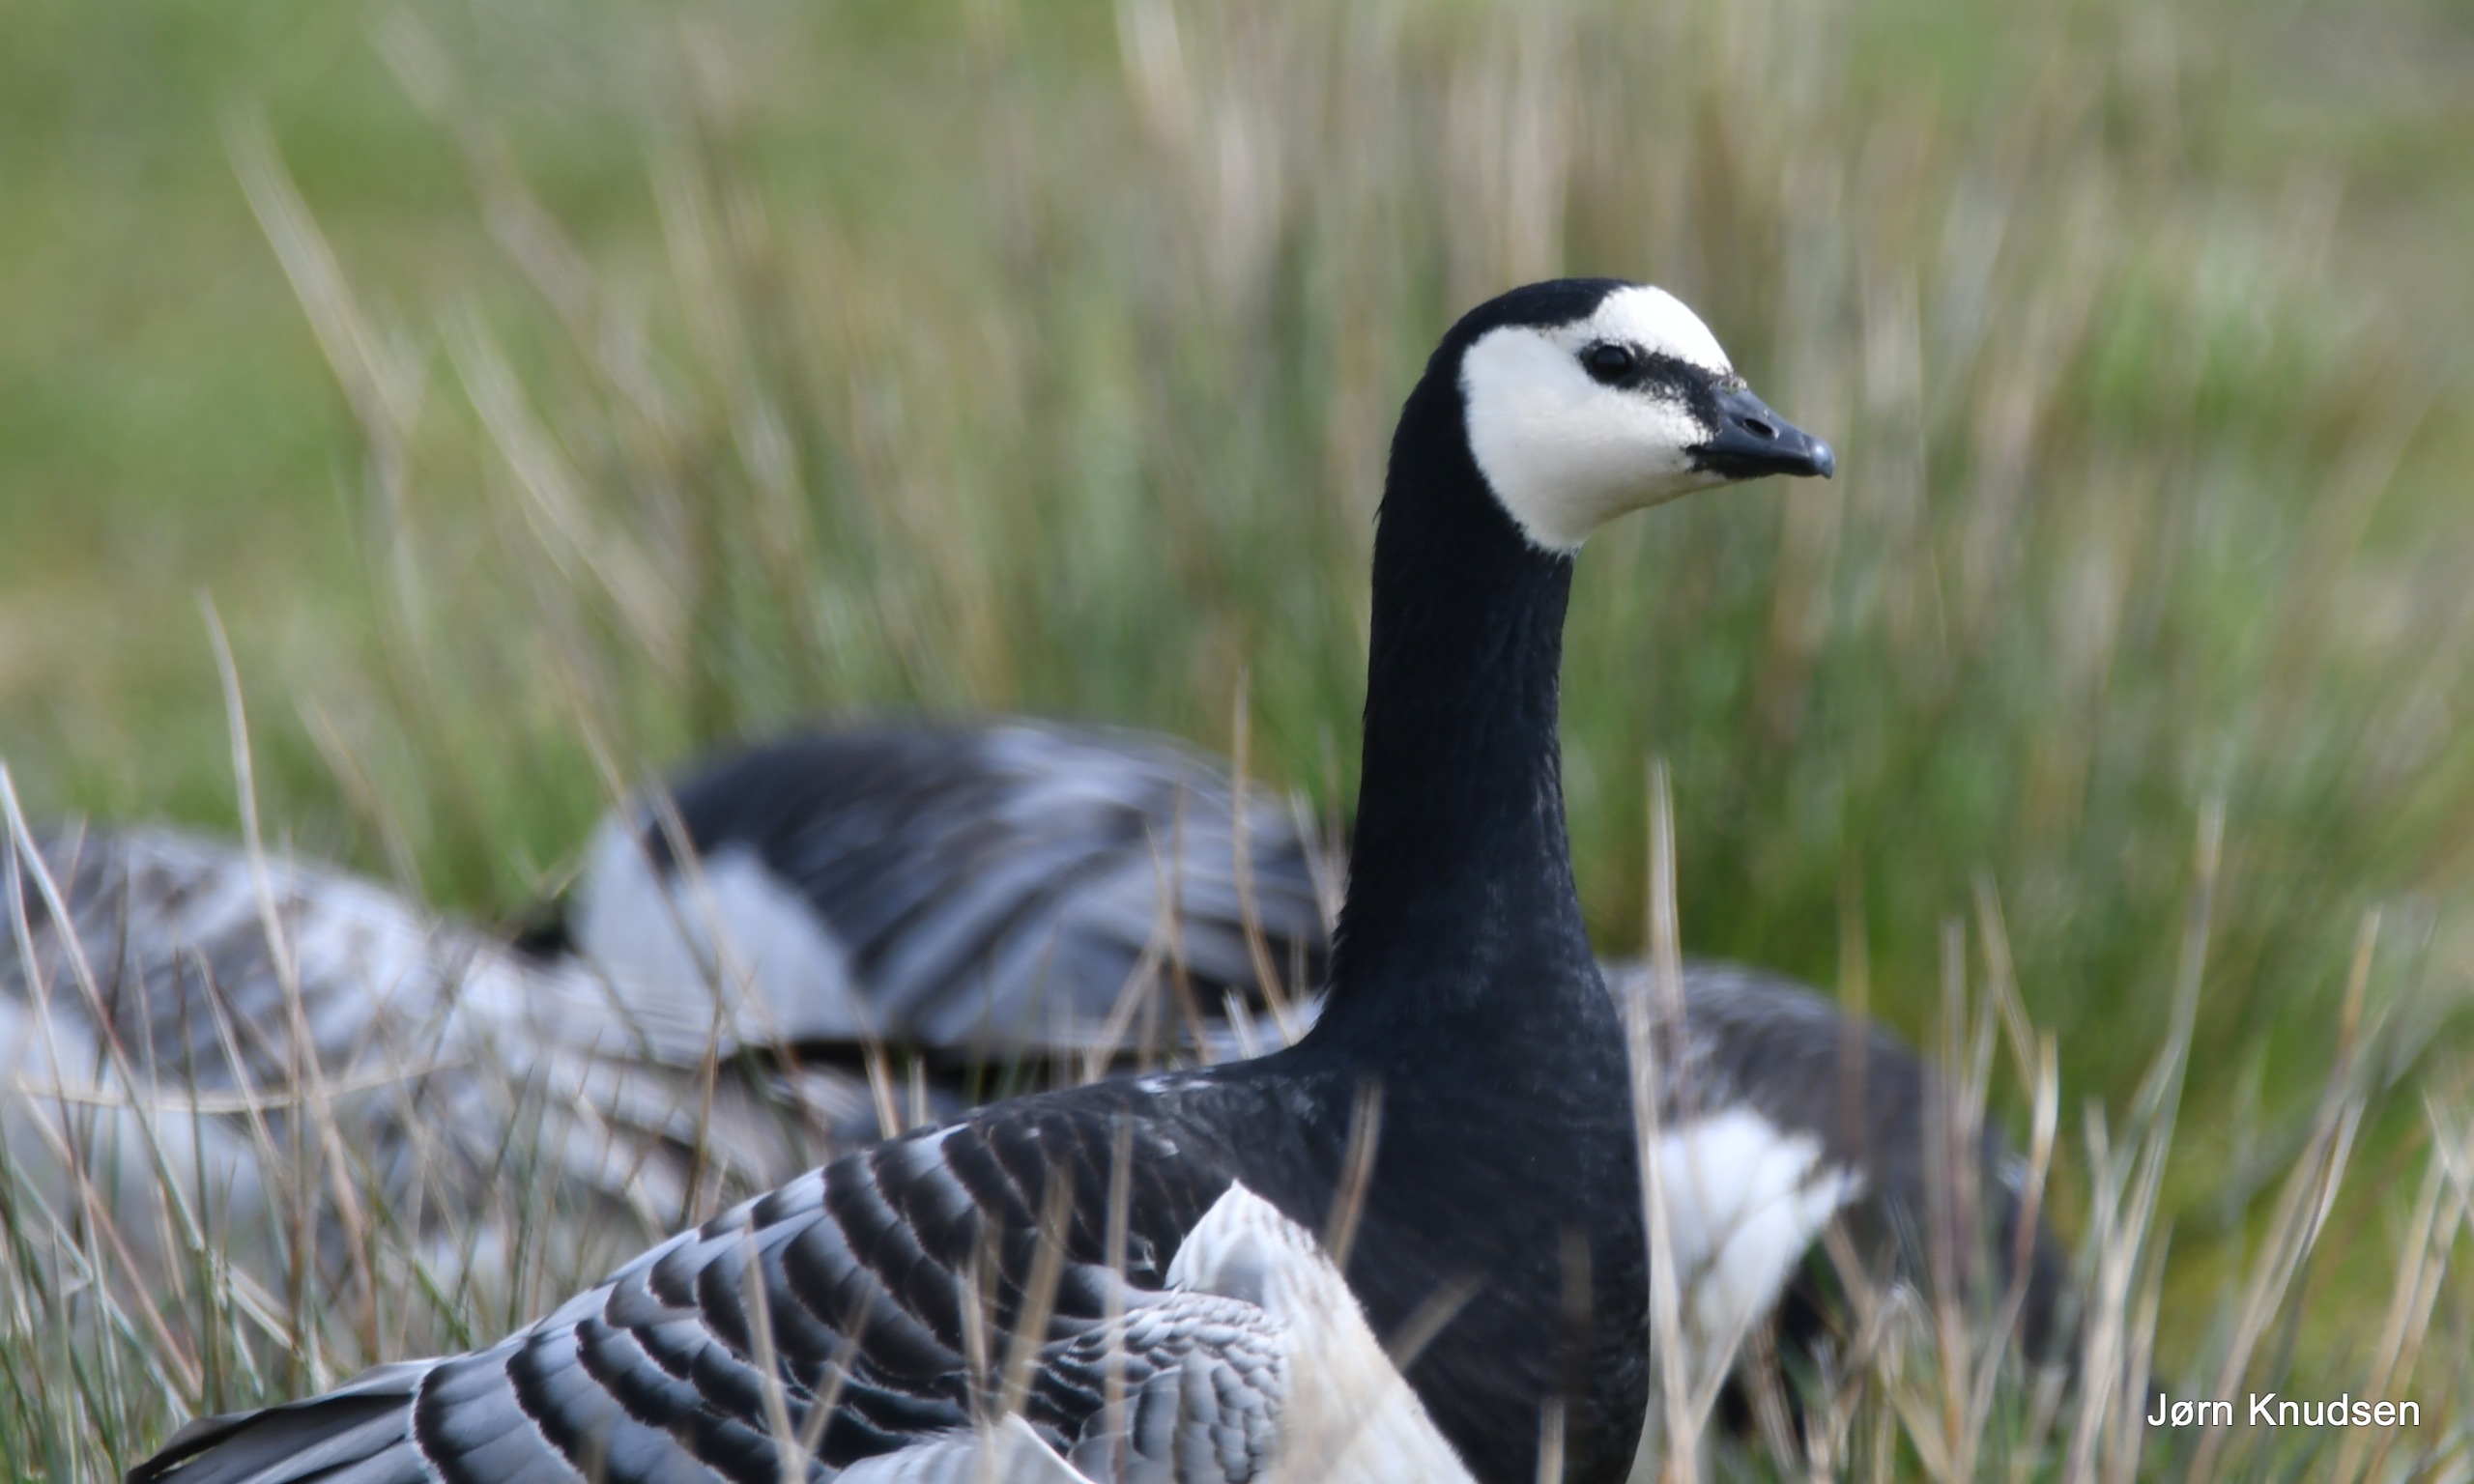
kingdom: Animalia
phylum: Chordata
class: Aves
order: Anseriformes
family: Anatidae
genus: Branta
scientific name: Branta leucopsis
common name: Bramgås
